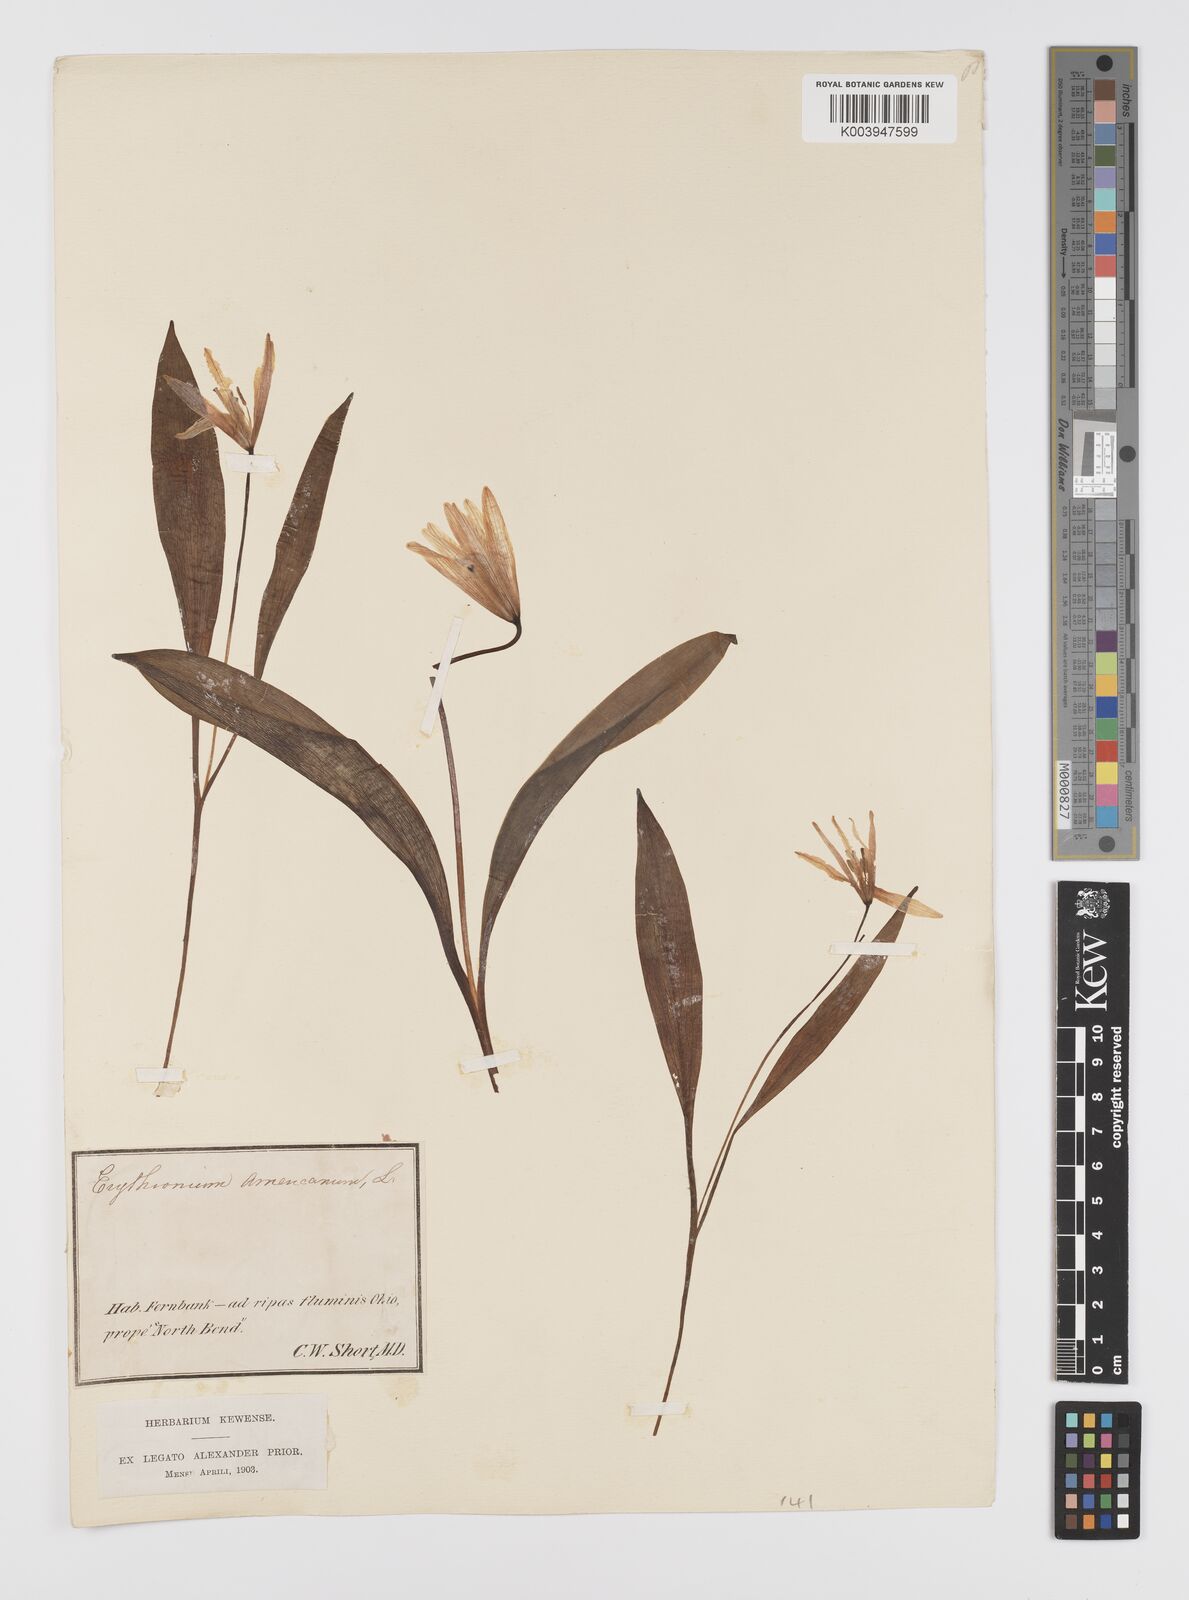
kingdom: Plantae
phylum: Tracheophyta
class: Liliopsida
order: Liliales
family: Liliaceae
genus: Erythronium
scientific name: Erythronium grandiflorum
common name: Avalanche-lily
